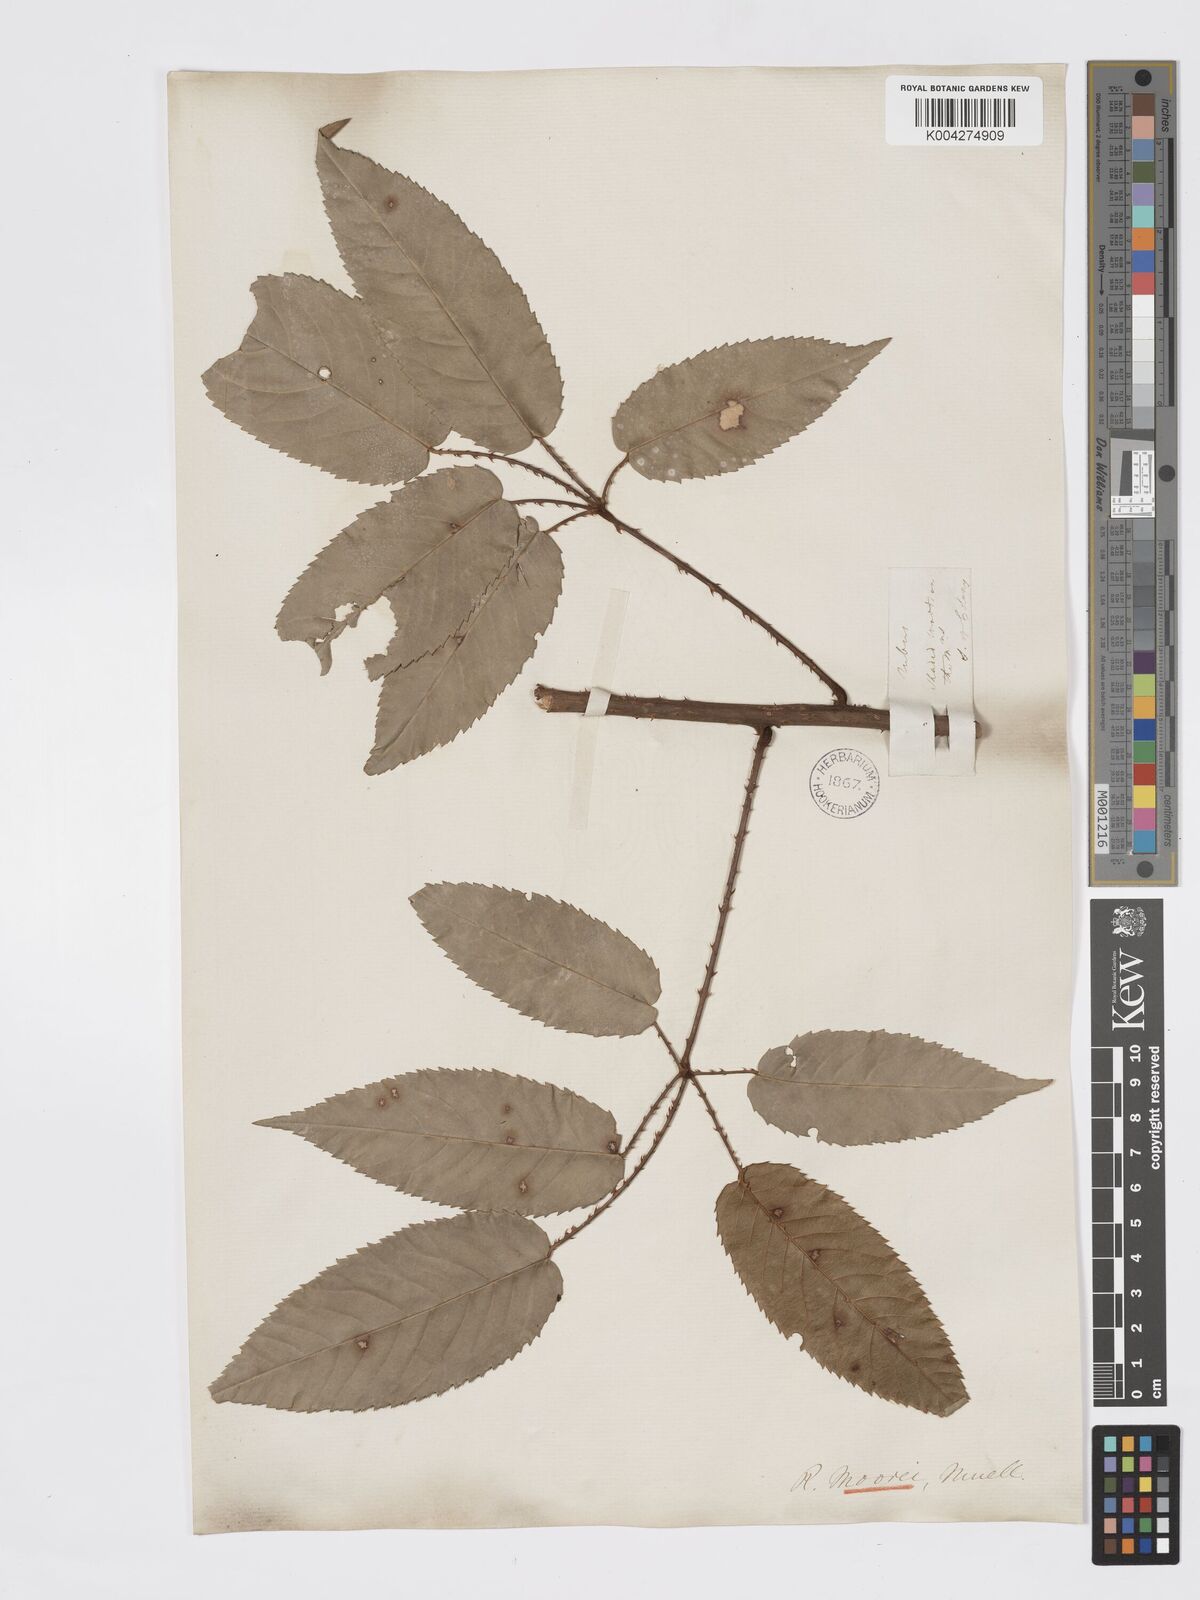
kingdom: Plantae
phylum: Tracheophyta
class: Magnoliopsida
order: Rosales
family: Rosaceae
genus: Rubus
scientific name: Rubus moorei
